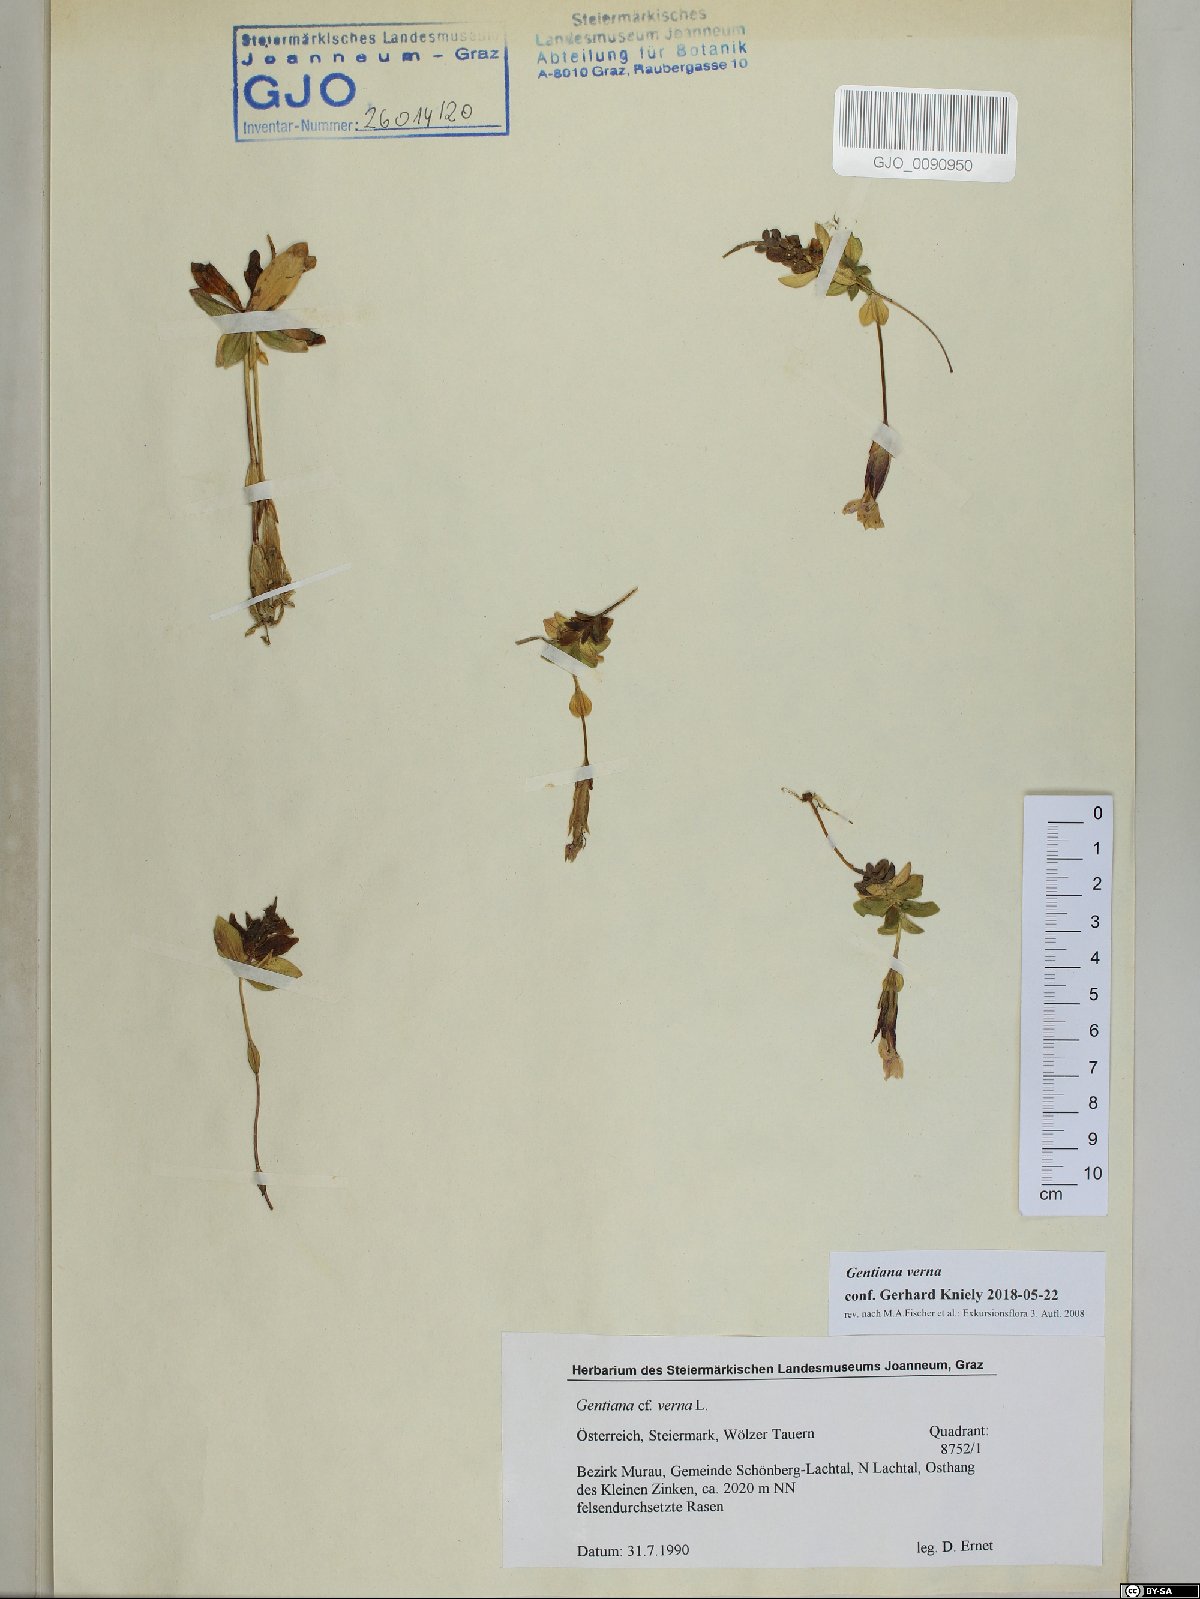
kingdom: Plantae
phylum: Tracheophyta
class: Magnoliopsida
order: Gentianales
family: Gentianaceae
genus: Gentiana
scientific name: Gentiana verna
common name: Spring gentian
